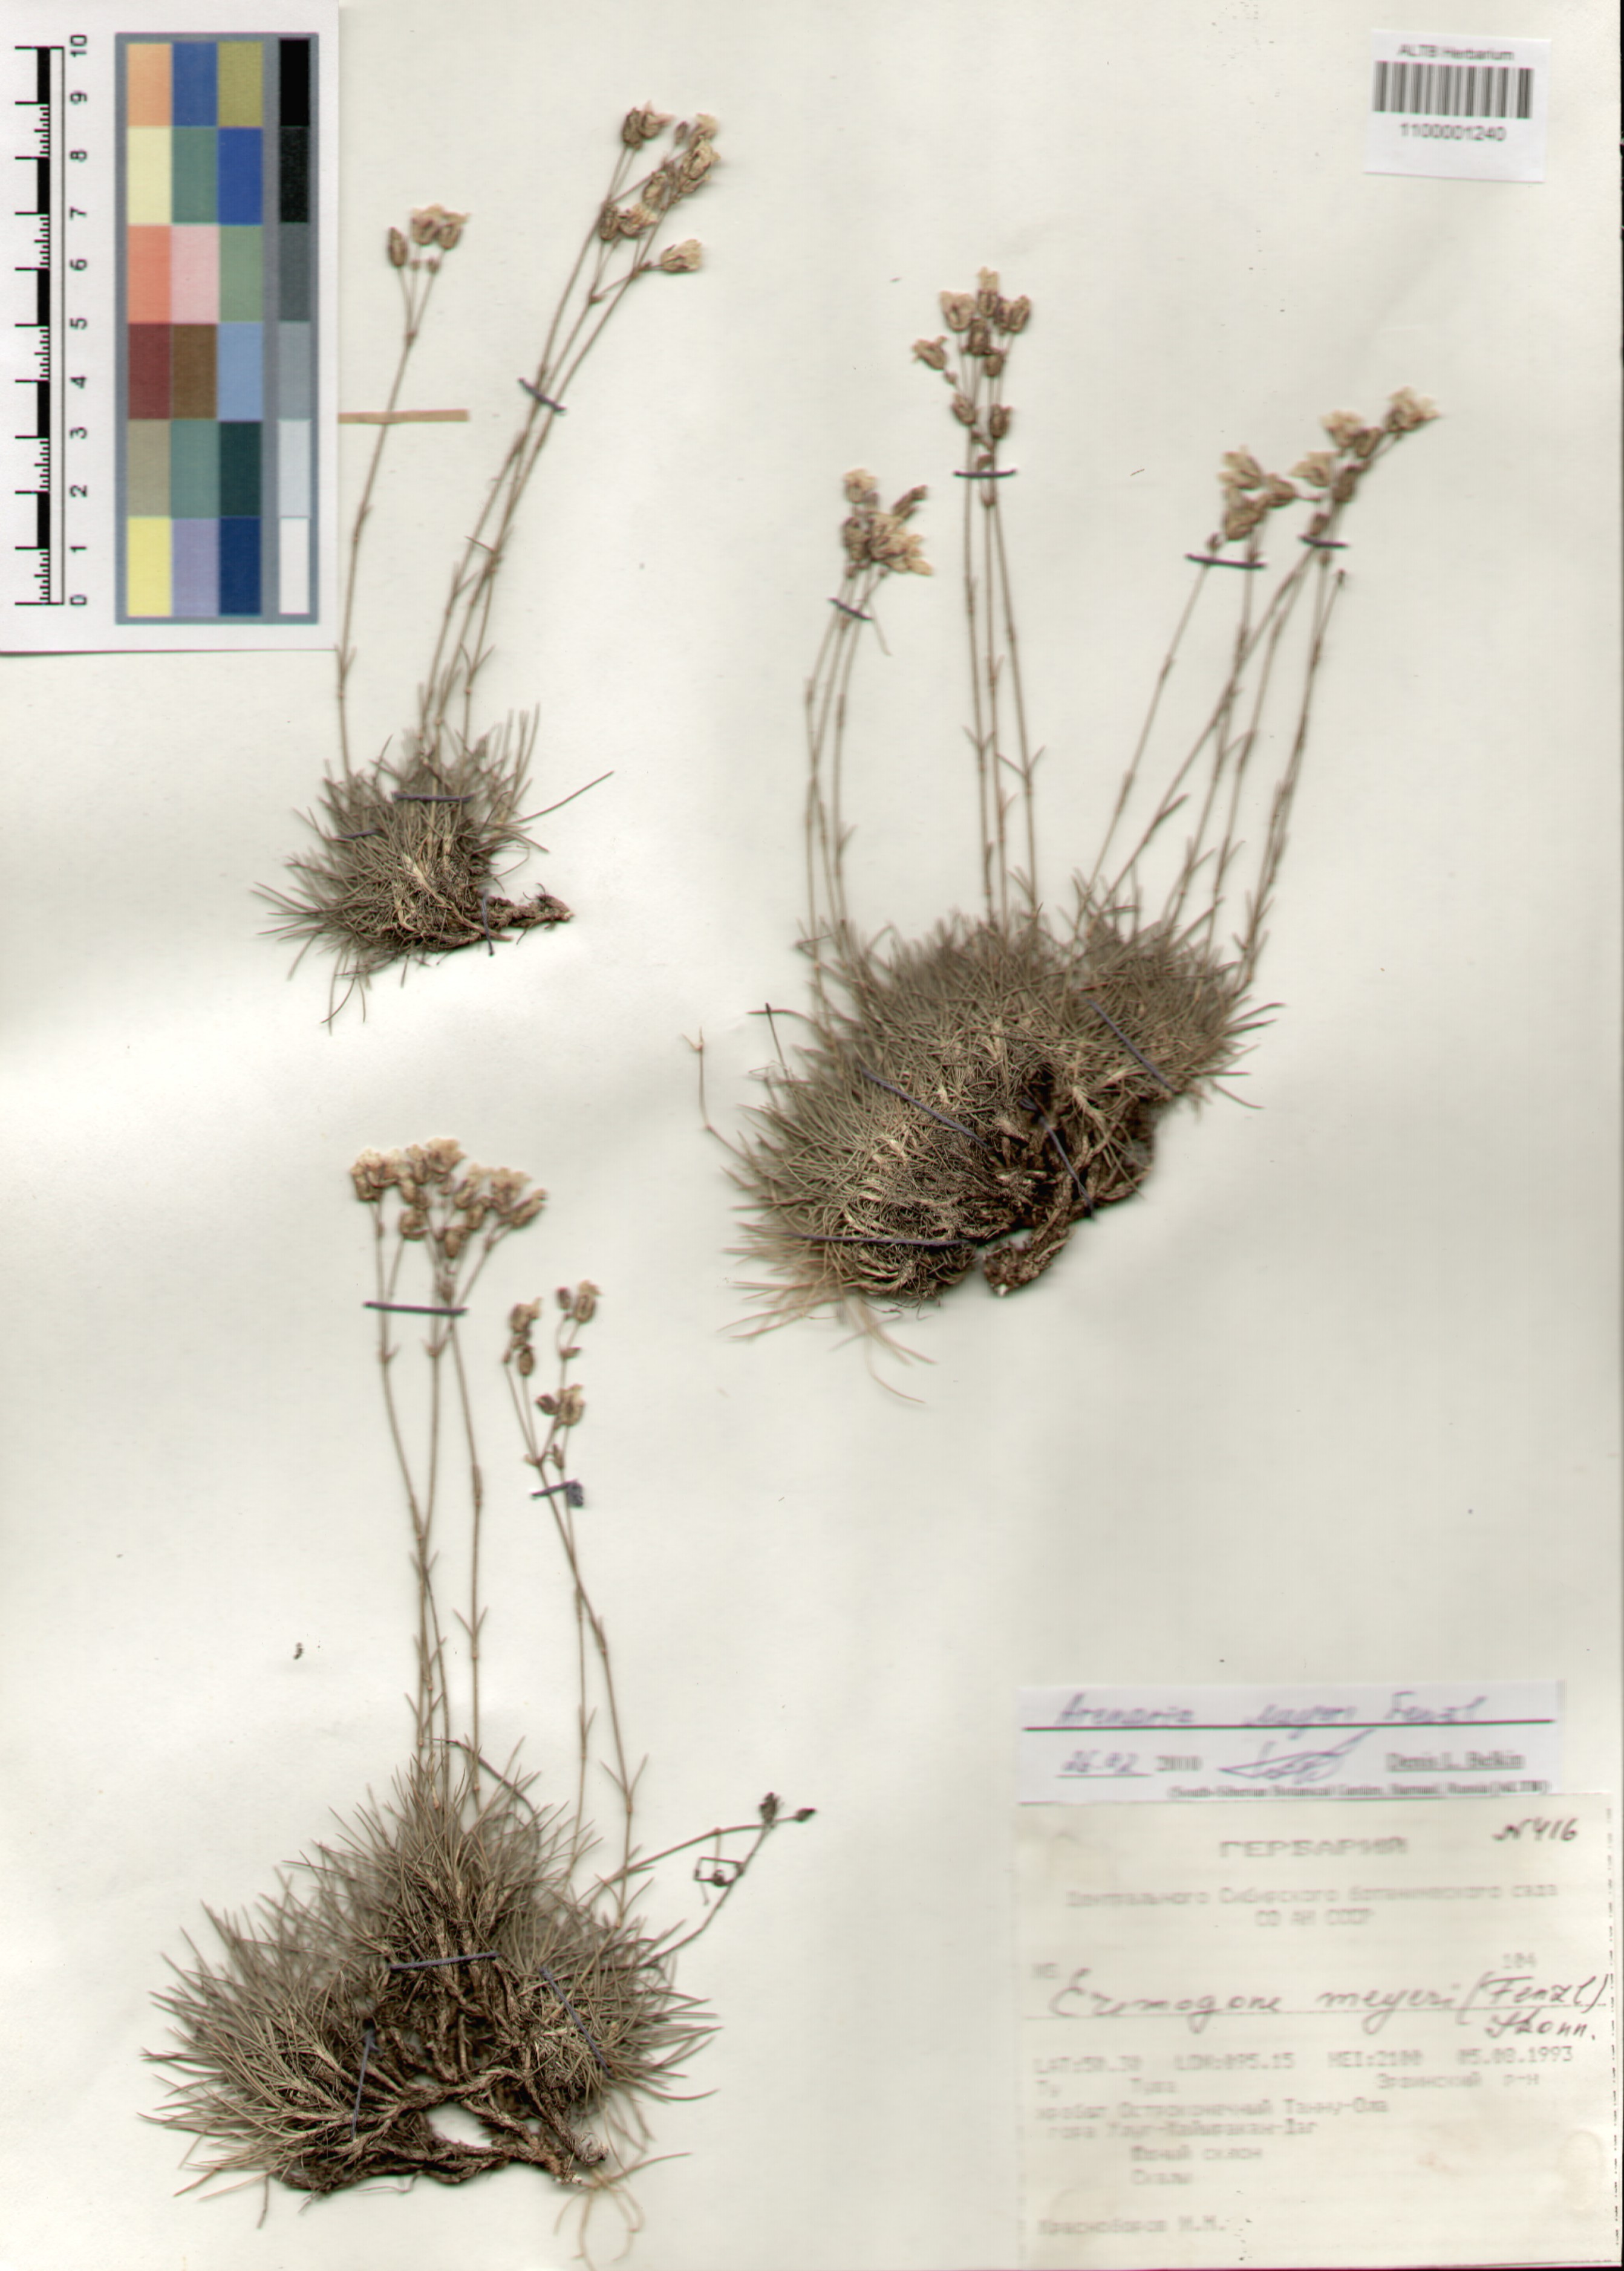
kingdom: Plantae
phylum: Tracheophyta
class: Magnoliopsida
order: Caryophyllales
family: Caryophyllaceae
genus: Eremogone
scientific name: Eremogone meyeri
